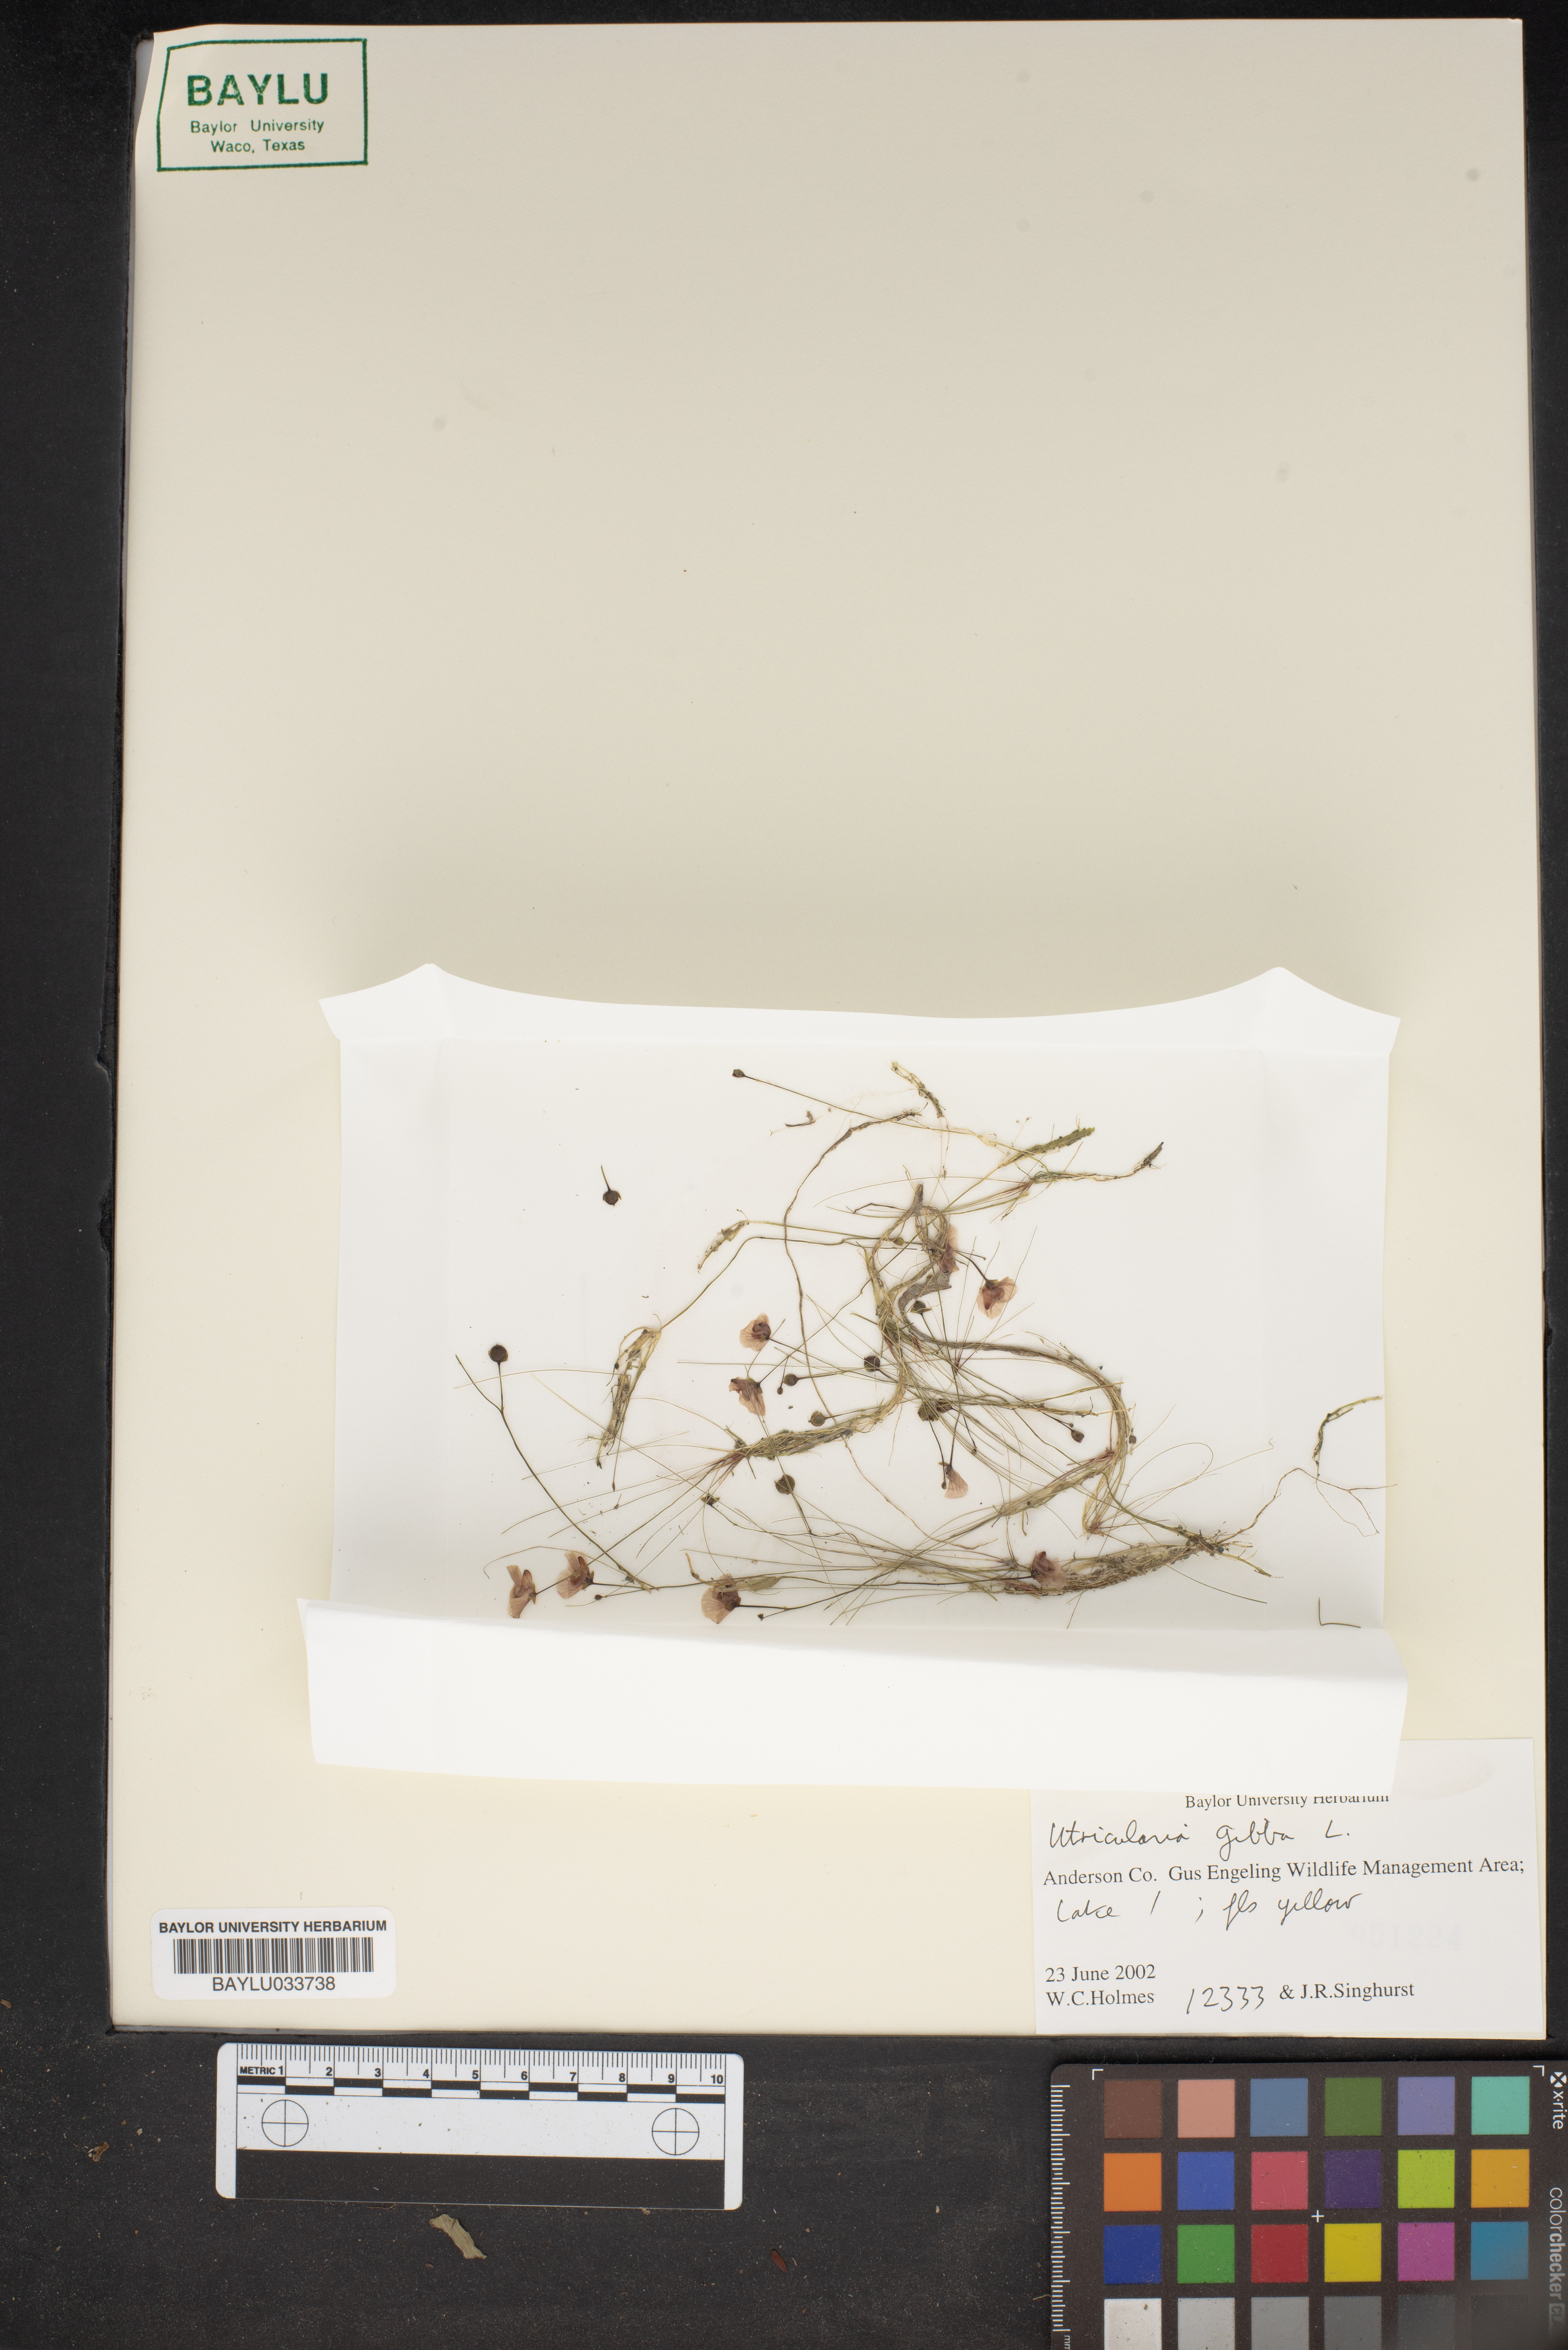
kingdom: Plantae
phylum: Tracheophyta
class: Magnoliopsida
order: Lamiales
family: Lentibulariaceae
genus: Utricularia
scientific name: Utricularia gibba
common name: Humped bladderwort
